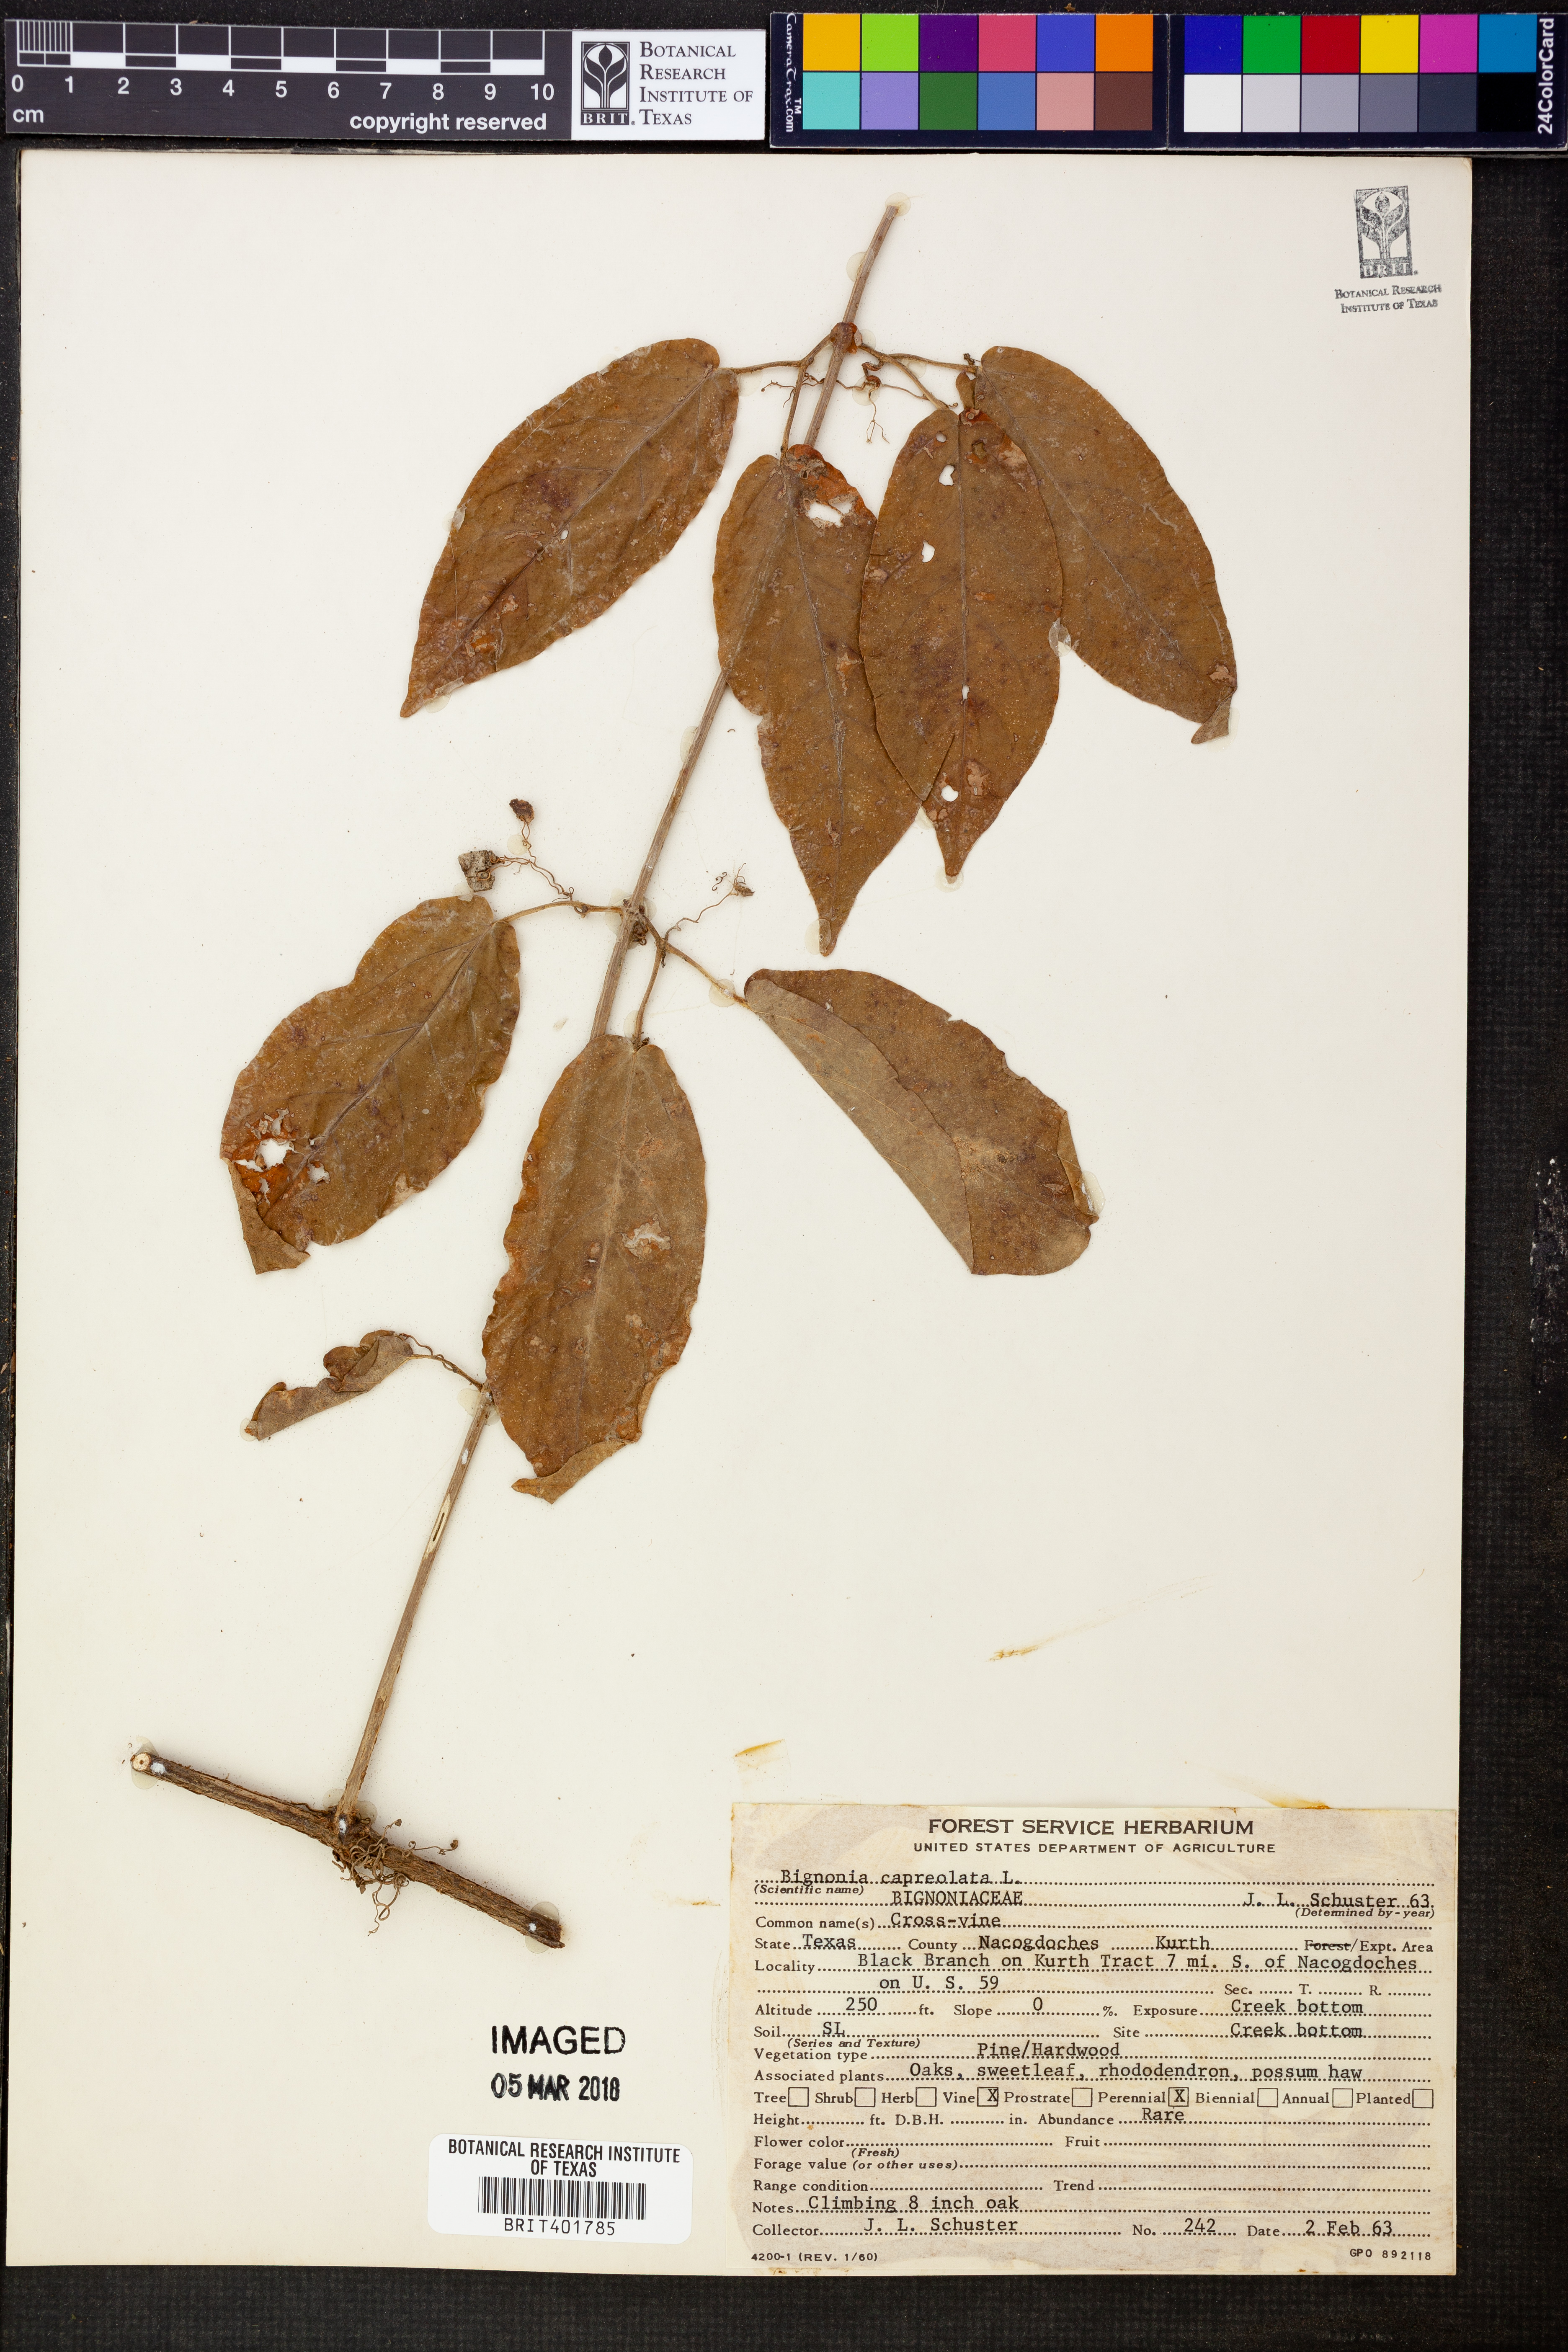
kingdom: Plantae
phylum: Tracheophyta
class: Magnoliopsida
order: Lamiales
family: Bignoniaceae
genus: Bignonia
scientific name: Bignonia capreolata
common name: Crossvine
